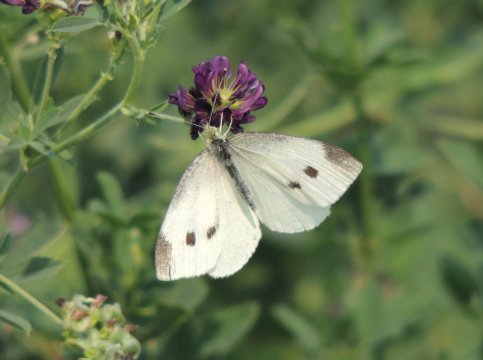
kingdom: Animalia
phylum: Arthropoda
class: Insecta
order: Lepidoptera
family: Pieridae
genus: Pieris
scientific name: Pieris rapae
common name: Cabbage White
